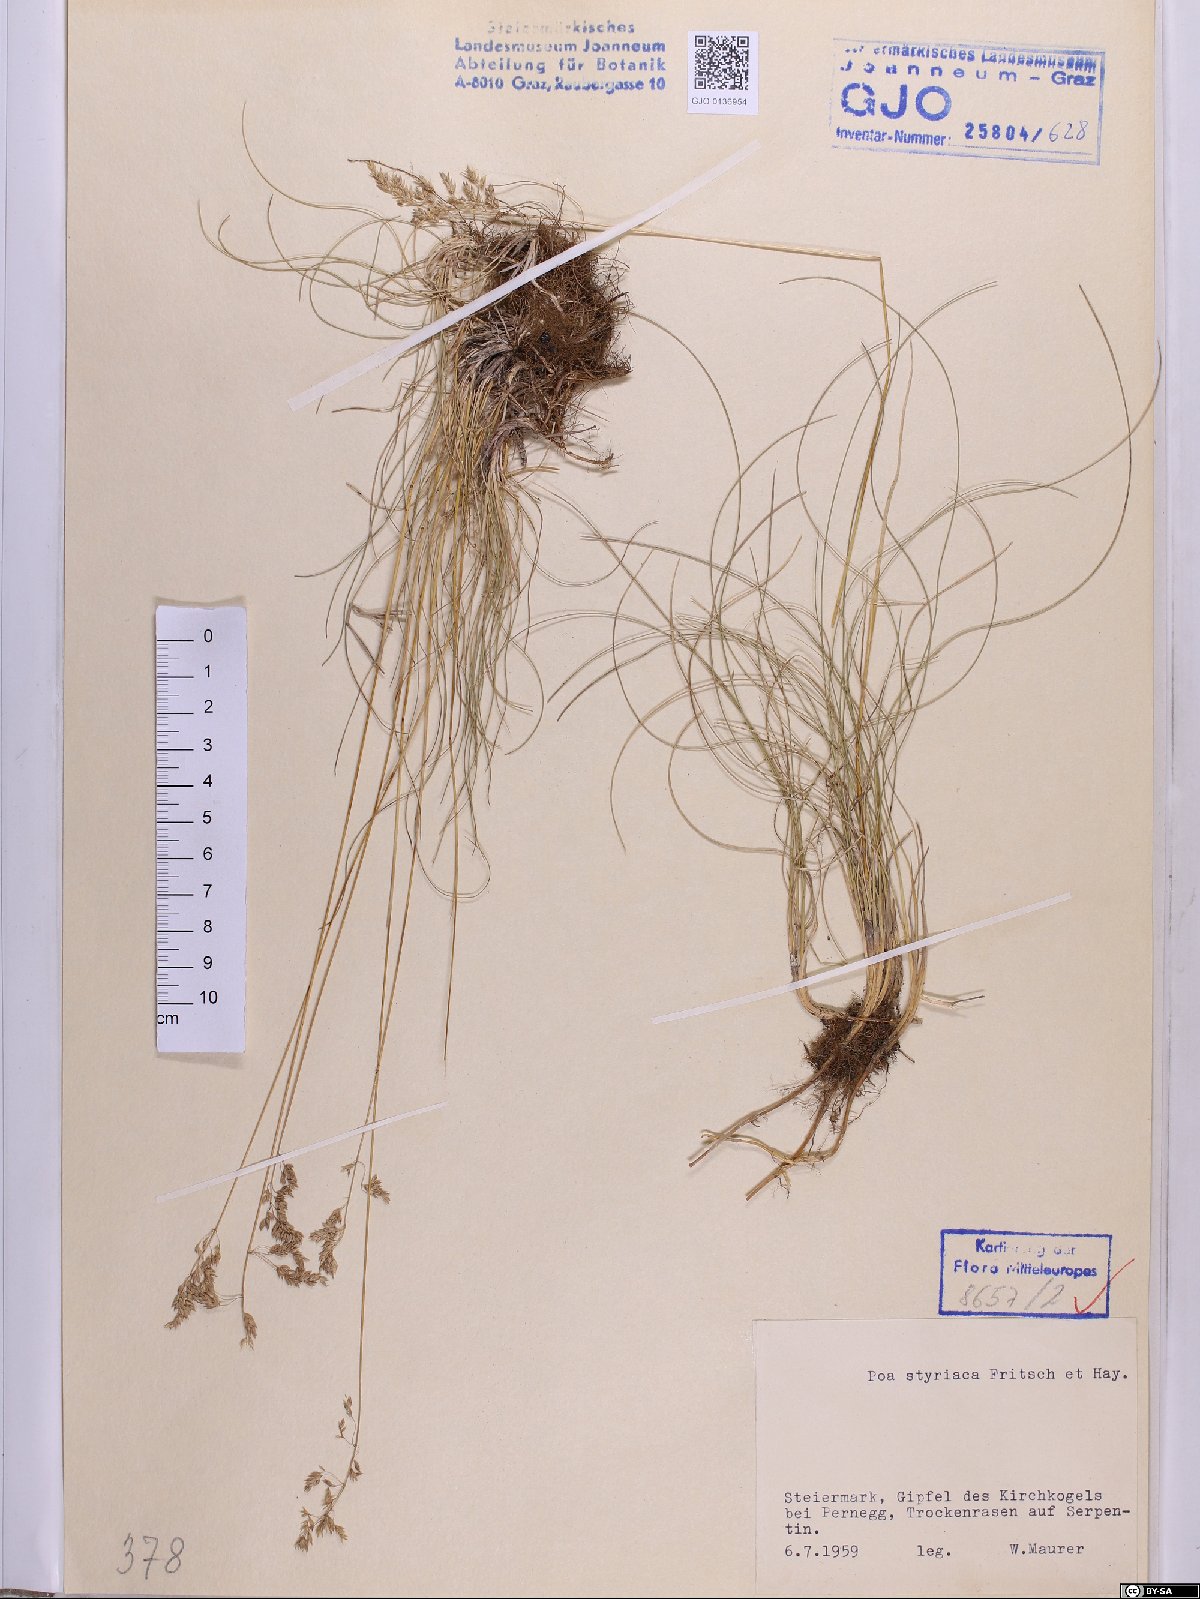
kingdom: Plantae
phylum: Tracheophyta
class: Liliopsida
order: Poales
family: Poaceae
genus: Poa
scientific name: Poa stiriaca
